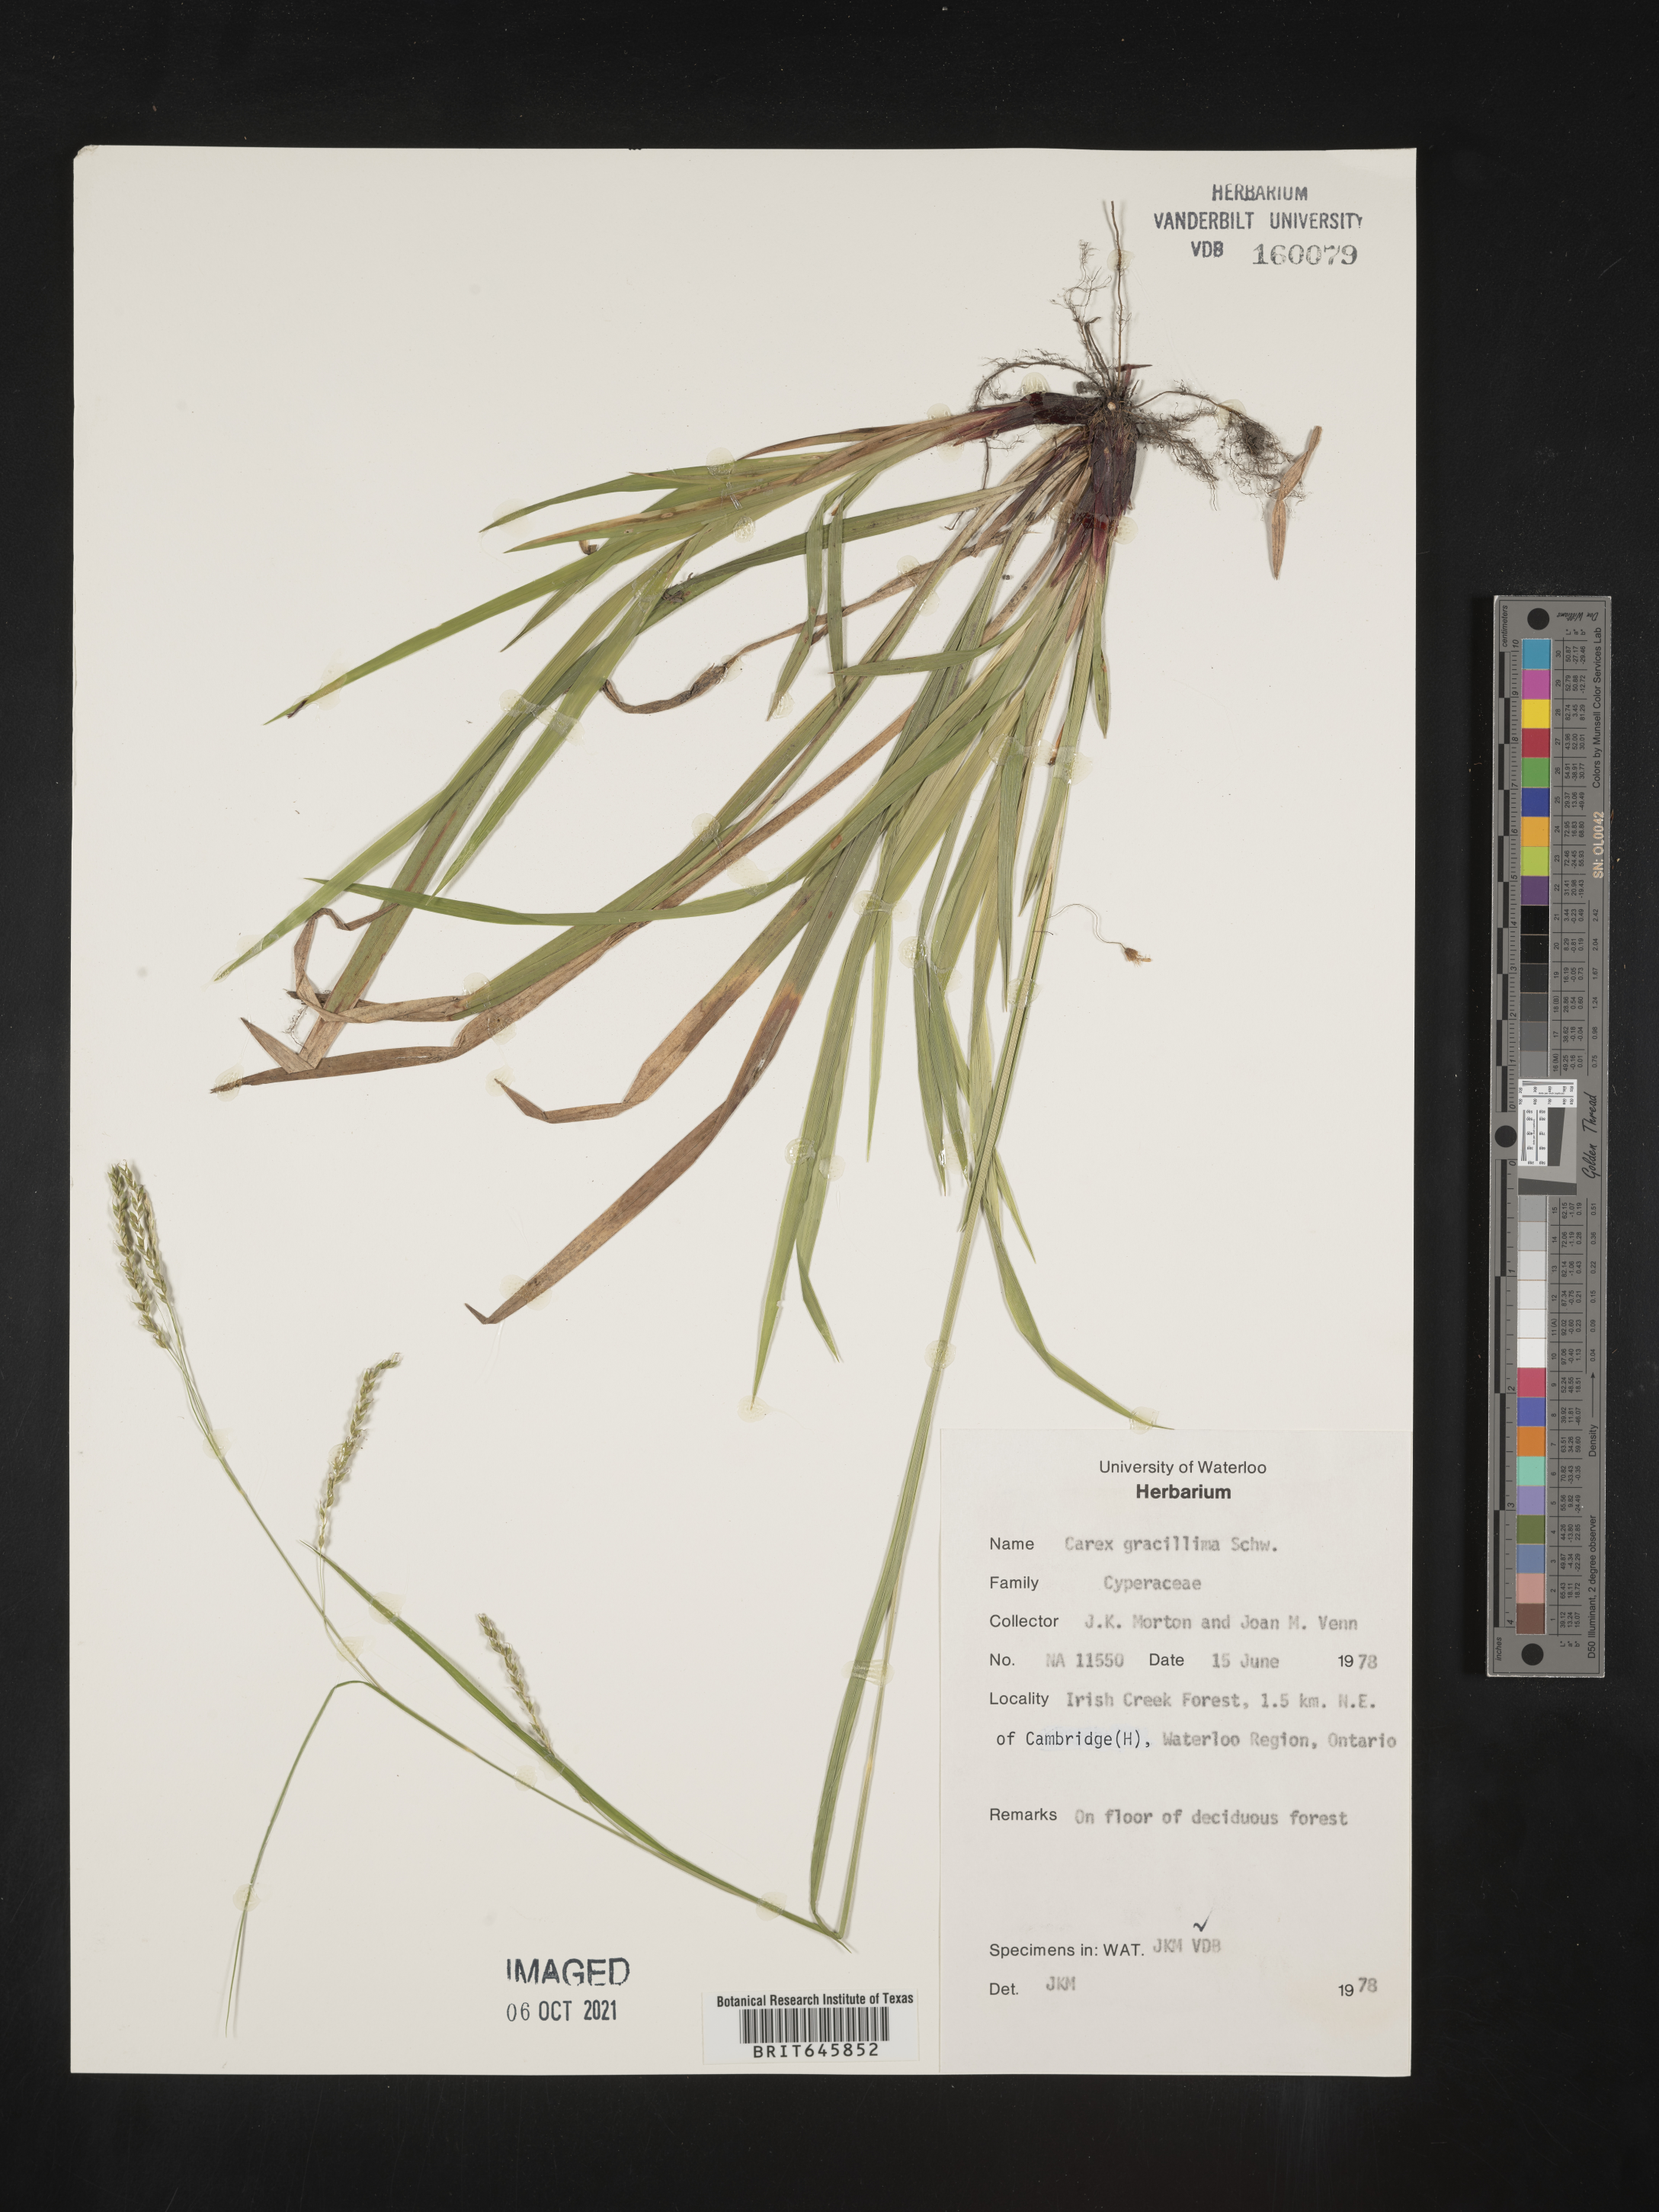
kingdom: Plantae
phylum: Tracheophyta
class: Liliopsida
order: Poales
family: Cyperaceae
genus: Carex
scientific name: Carex gracillima
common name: Graceful sedge
